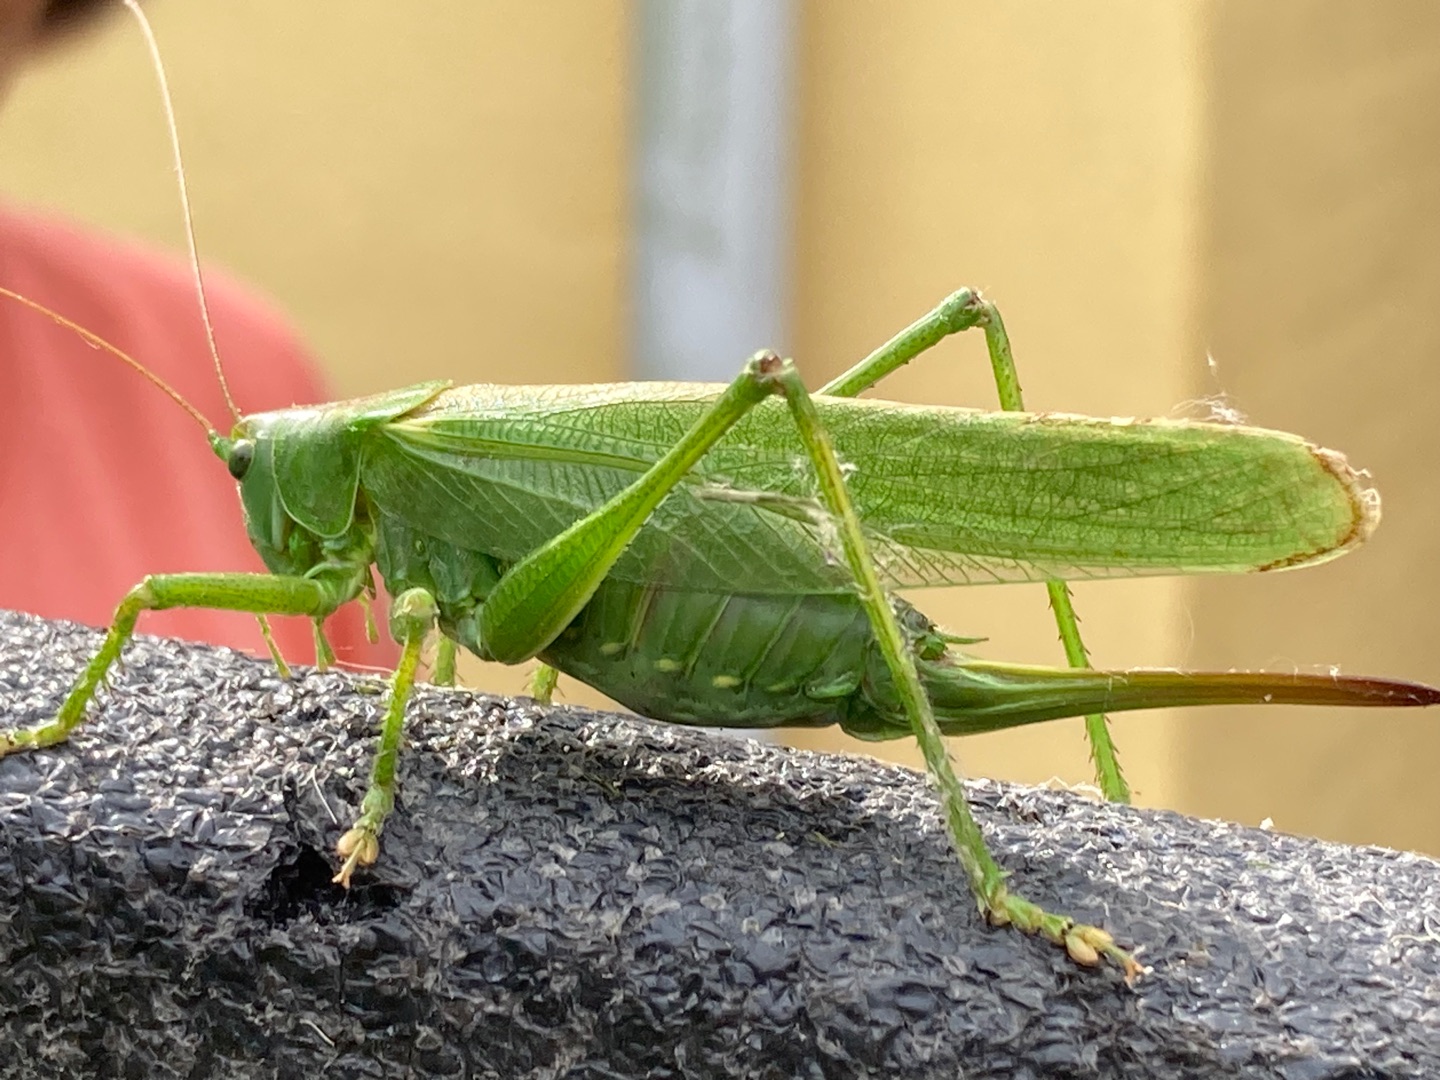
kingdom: Animalia
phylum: Arthropoda
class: Insecta
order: Orthoptera
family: Tettigoniidae
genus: Tettigonia
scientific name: Tettigonia viridissima
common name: Stor grøn løvgræshoppe
